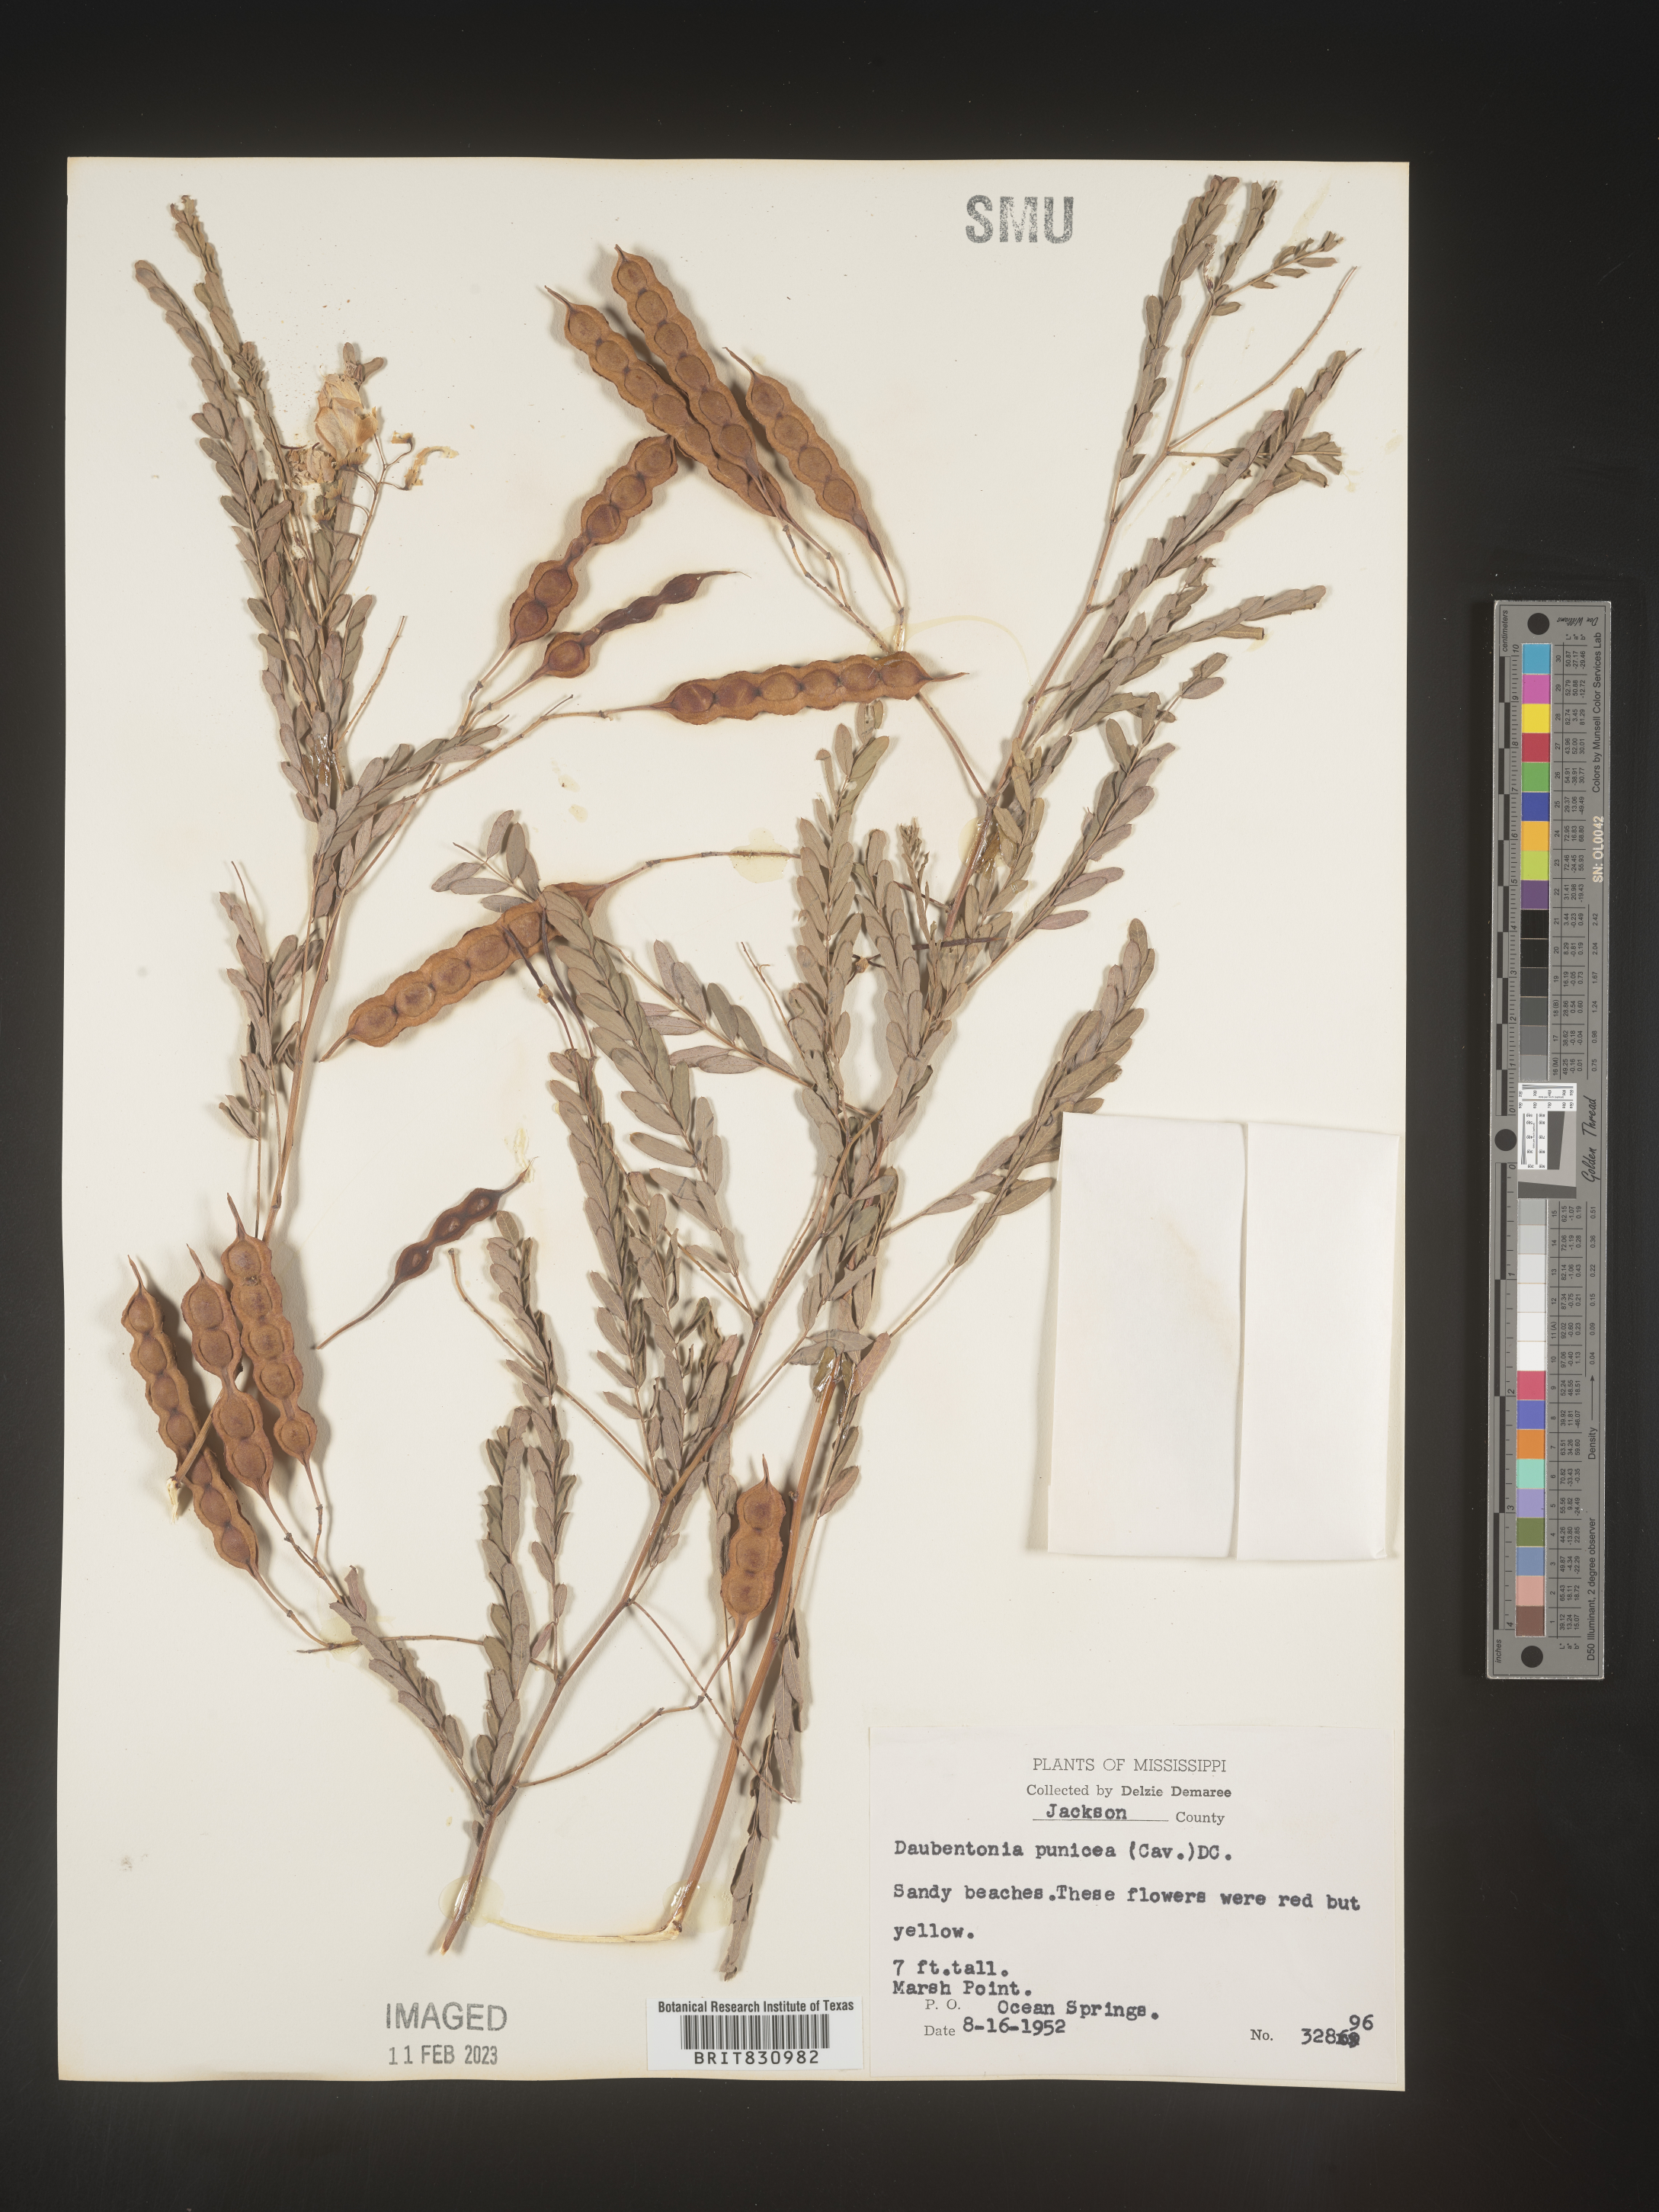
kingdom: Plantae
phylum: Tracheophyta
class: Magnoliopsida
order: Fabales
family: Fabaceae
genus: Sesbania
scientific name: Sesbania punicea
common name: Rattlebox
